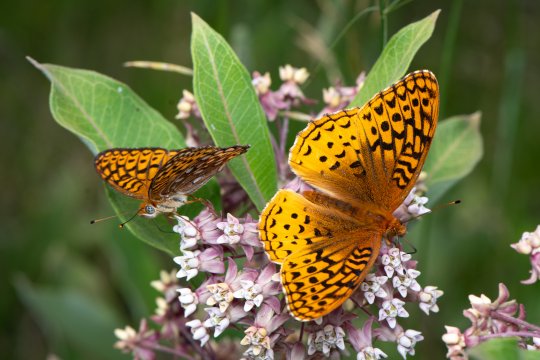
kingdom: Animalia
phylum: Arthropoda
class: Insecta
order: Lepidoptera
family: Nymphalidae
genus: Speyeria
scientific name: Speyeria atlantis
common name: Atlantis Fritillary
